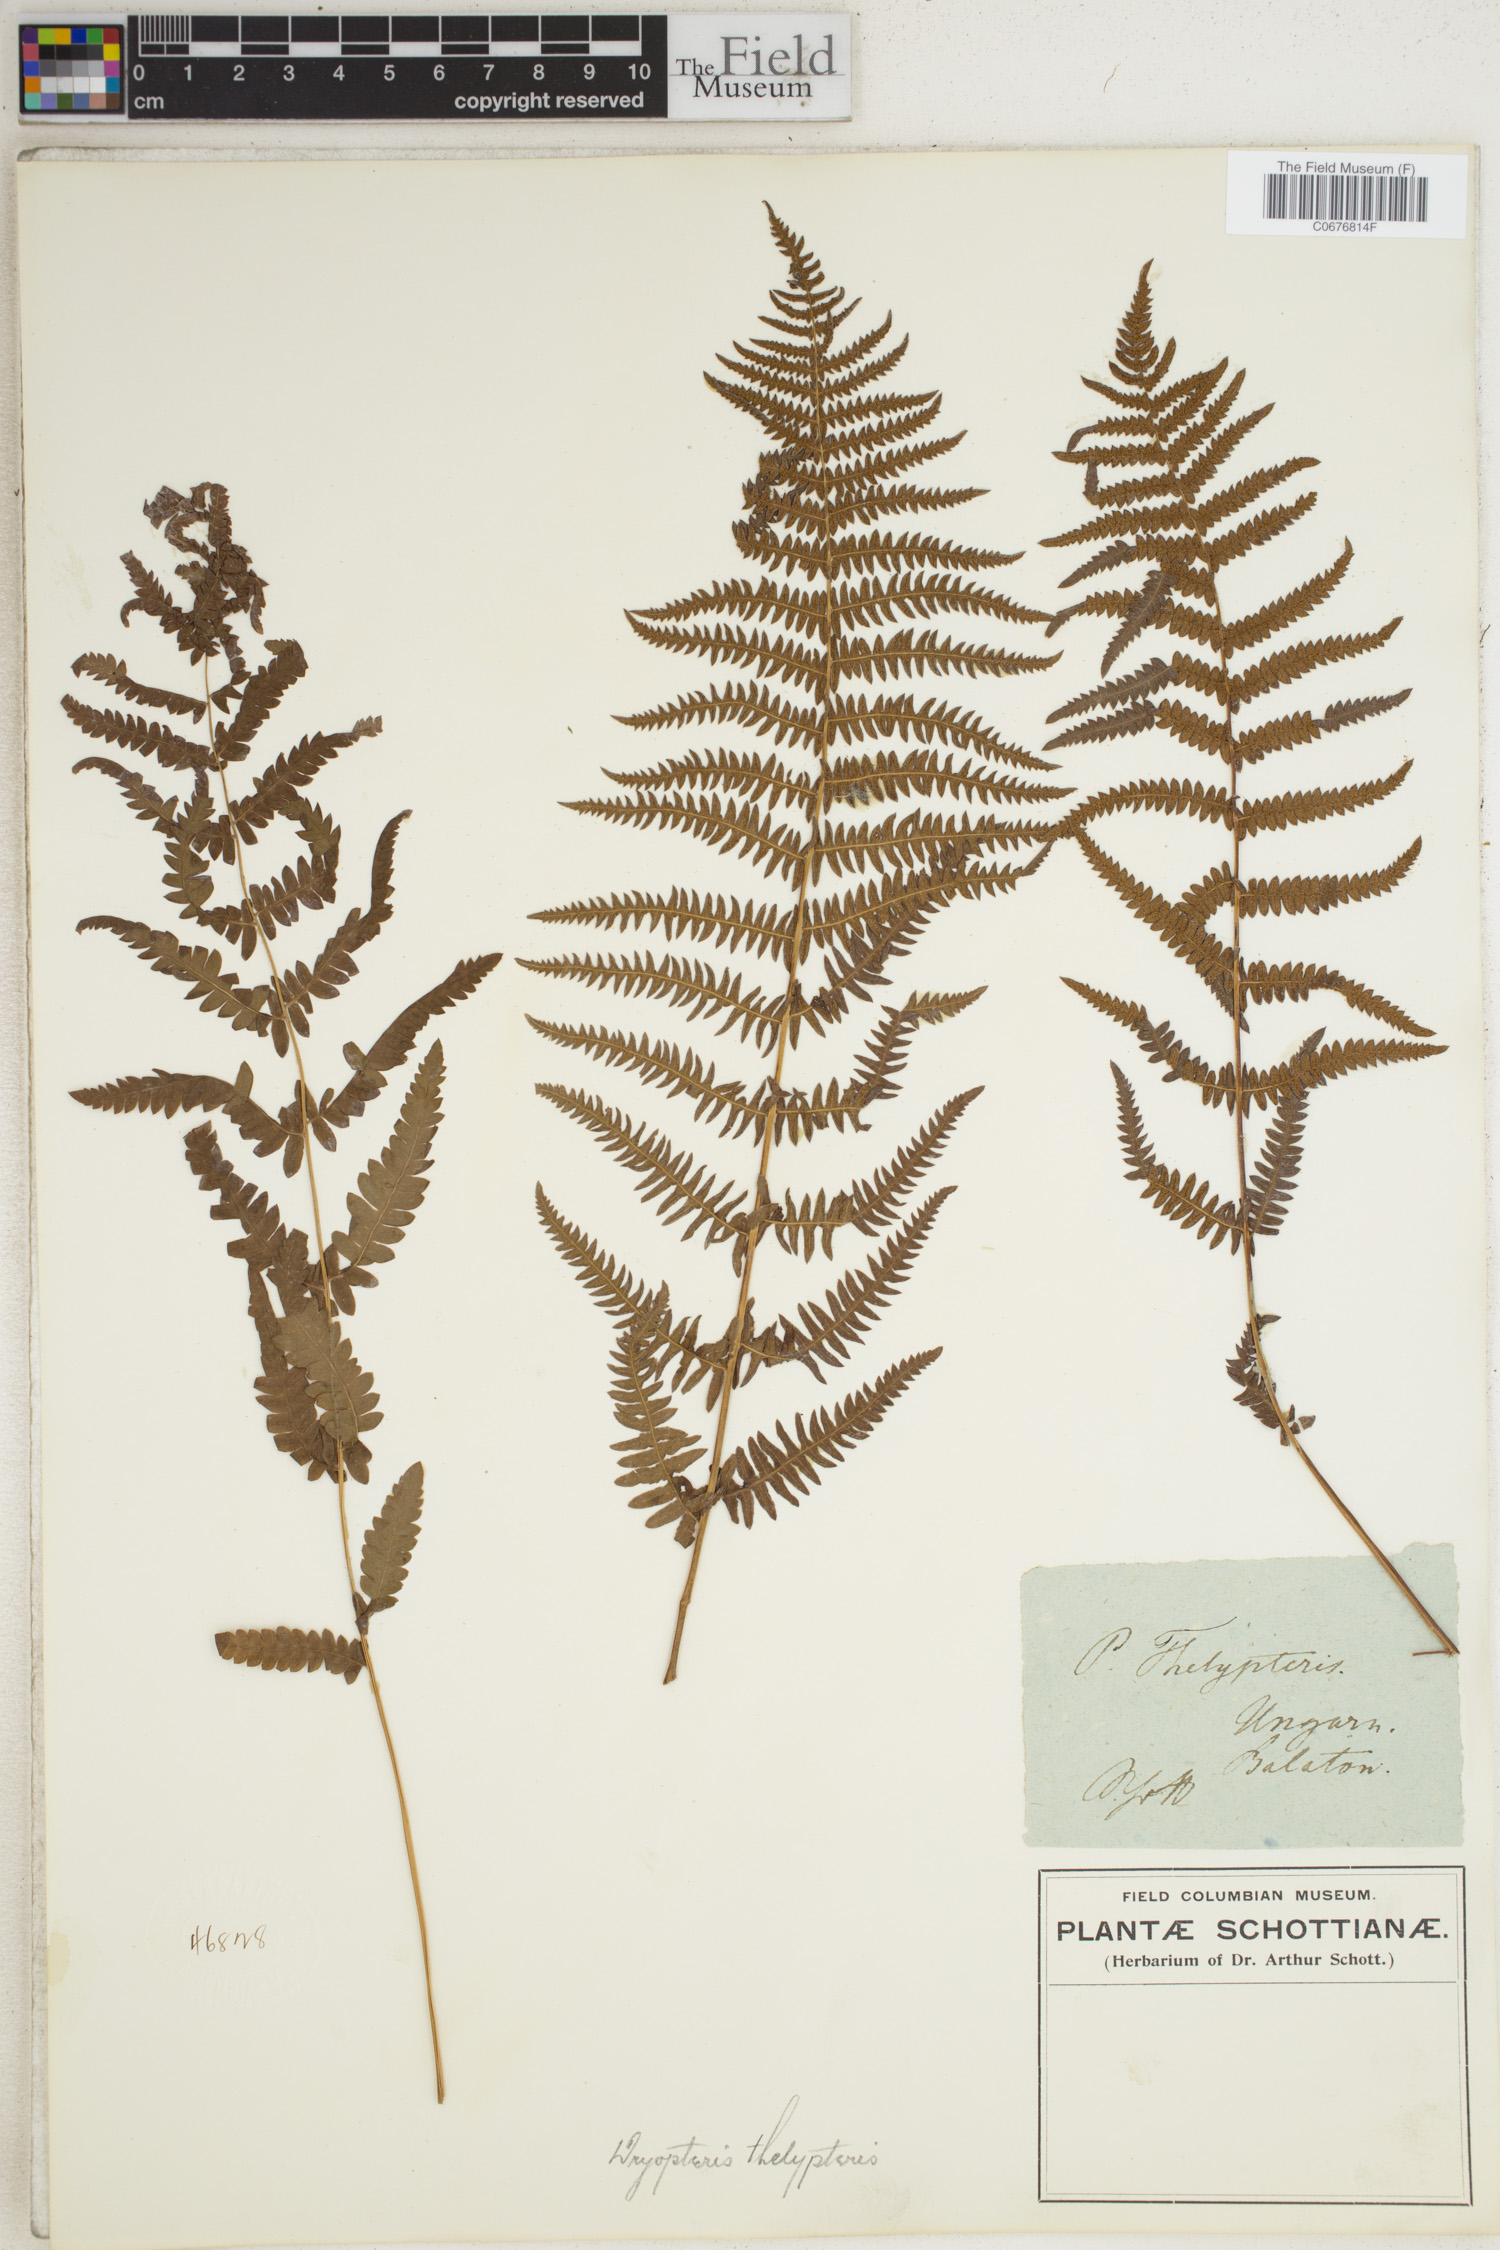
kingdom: Plantae
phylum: Tracheophyta
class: Polypodiopsida
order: Polypodiales
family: Thelypteridaceae
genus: Thelypteris
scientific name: Thelypteris palustris
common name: Marsh fern
